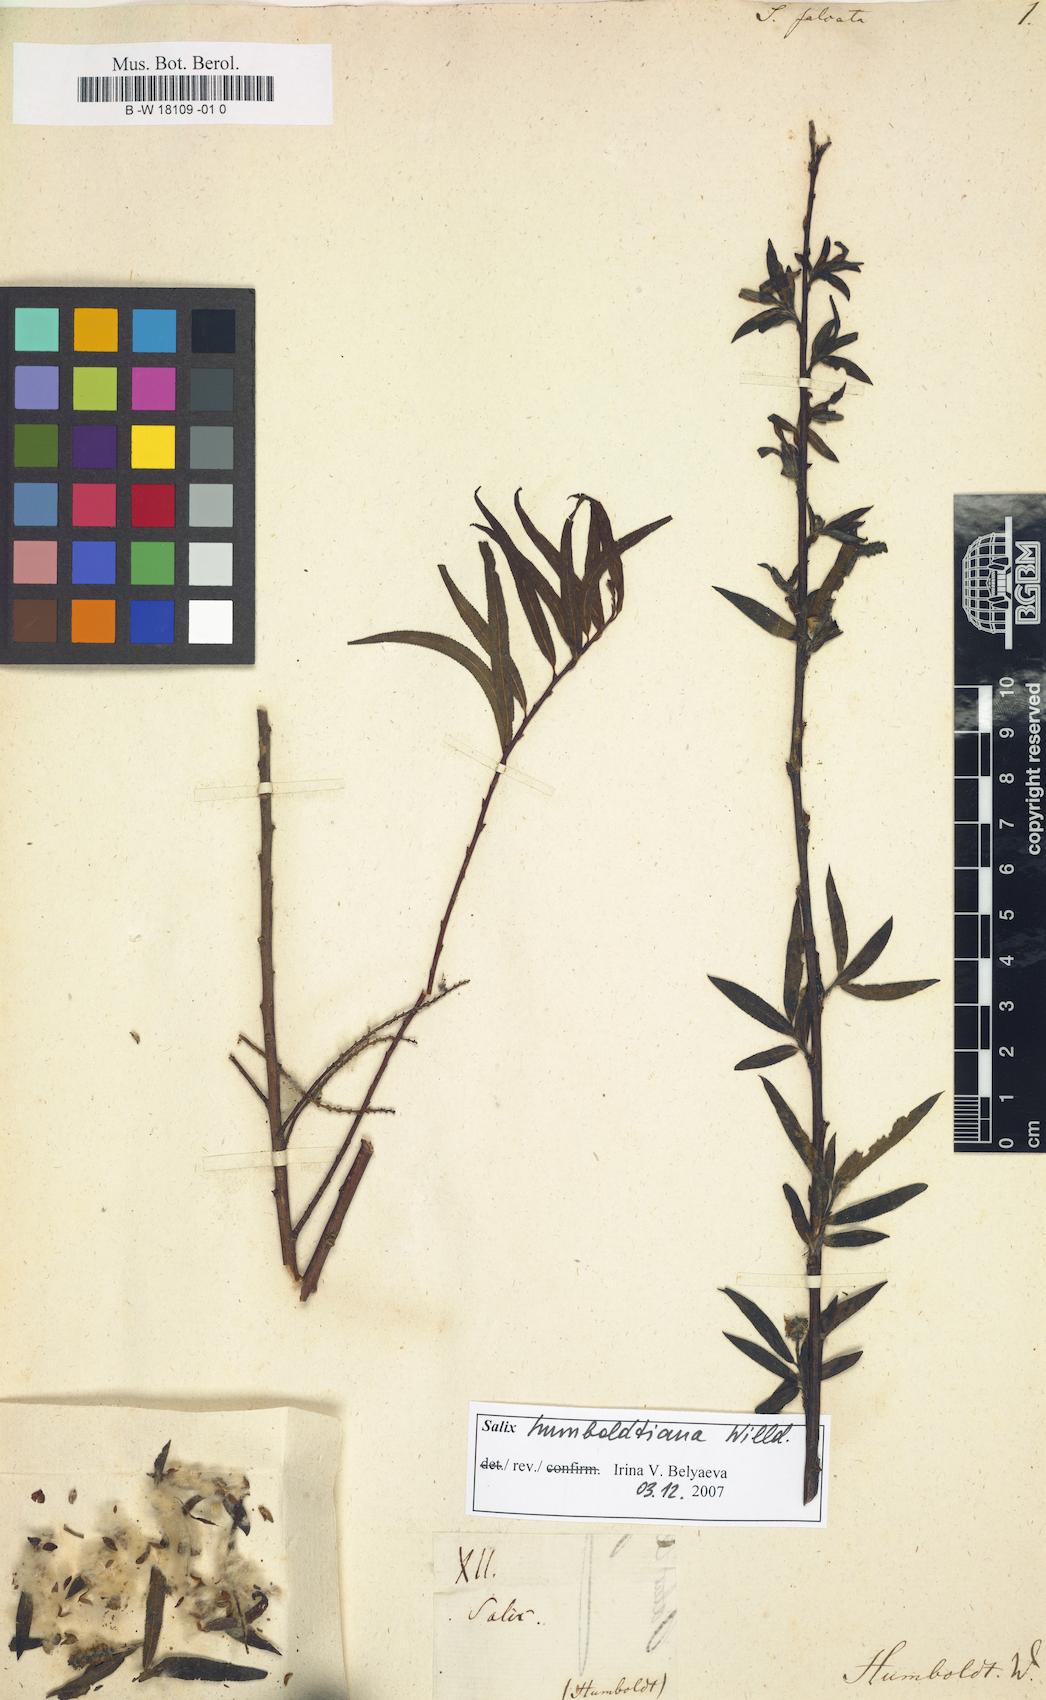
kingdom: Plantae
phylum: Tracheophyta
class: Magnoliopsida
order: Malpighiales
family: Salicaceae
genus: Salix
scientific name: Salix
